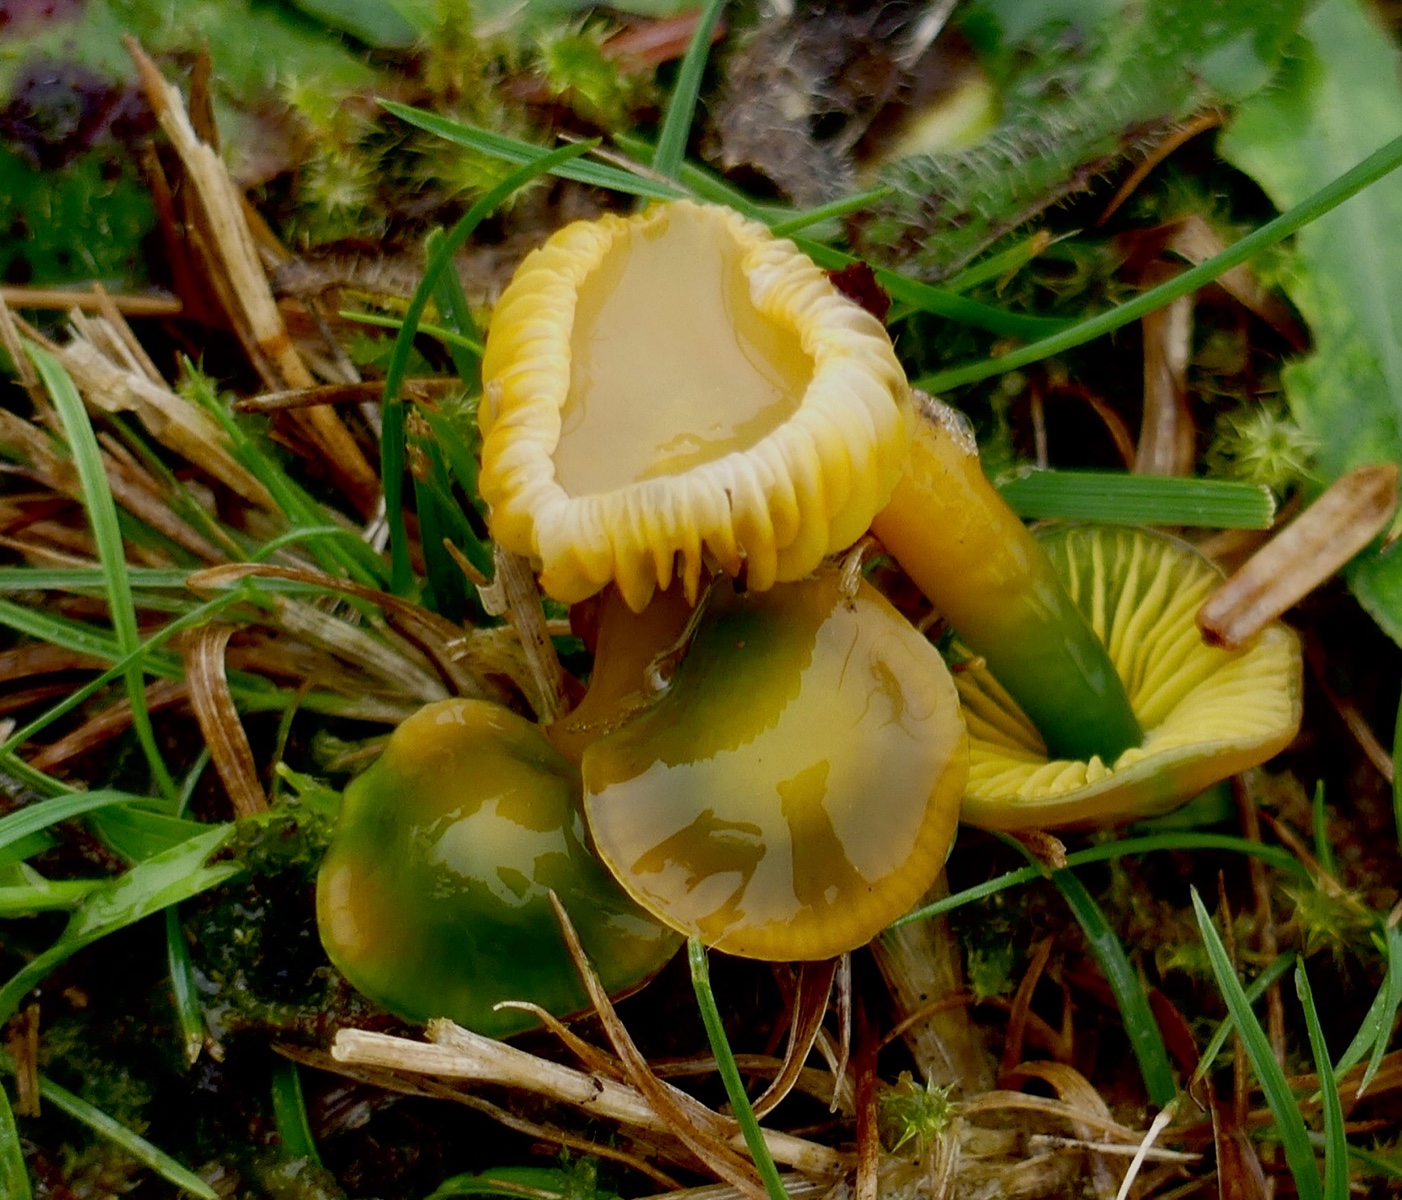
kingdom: Fungi
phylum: Basidiomycota
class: Agaricomycetes
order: Agaricales
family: Hygrophoraceae
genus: Gliophorus
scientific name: Gliophorus psittacinus
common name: papegøje-vokshat
